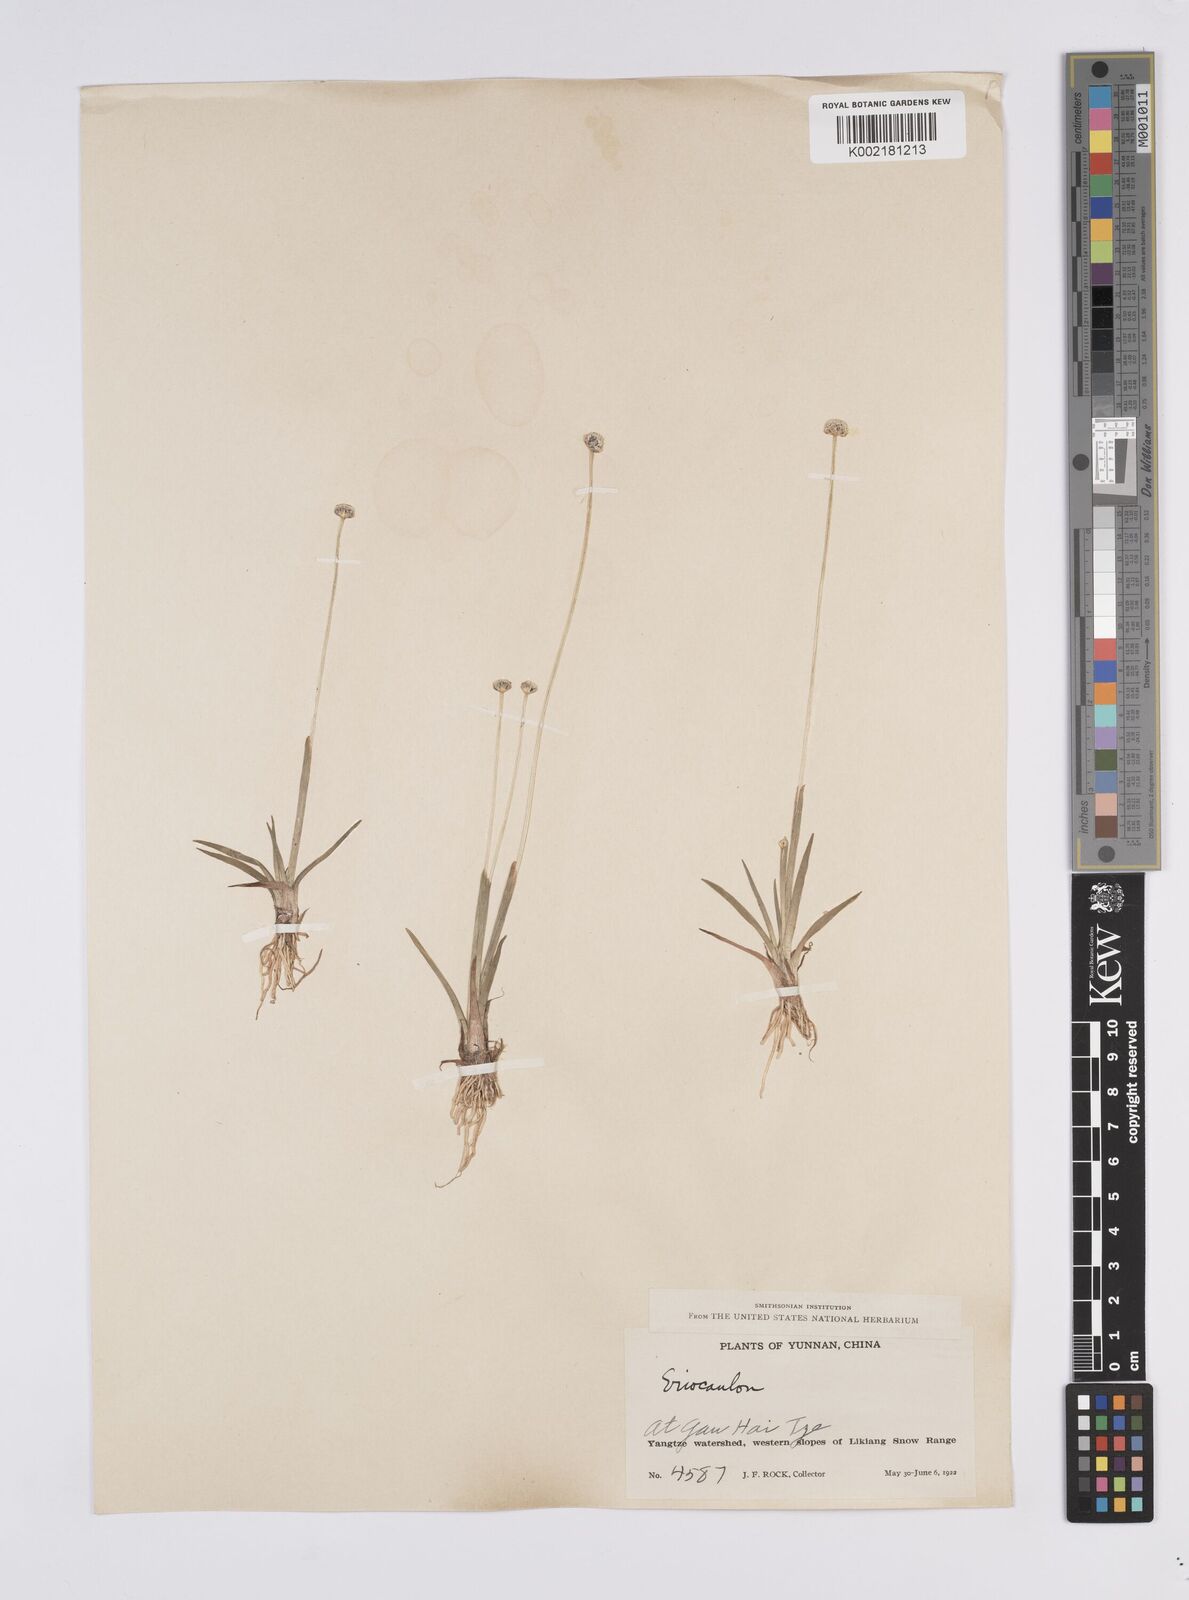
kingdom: Plantae
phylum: Tracheophyta
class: Liliopsida
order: Poales
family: Eriocaulaceae
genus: Eriocaulon
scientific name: Eriocaulon
